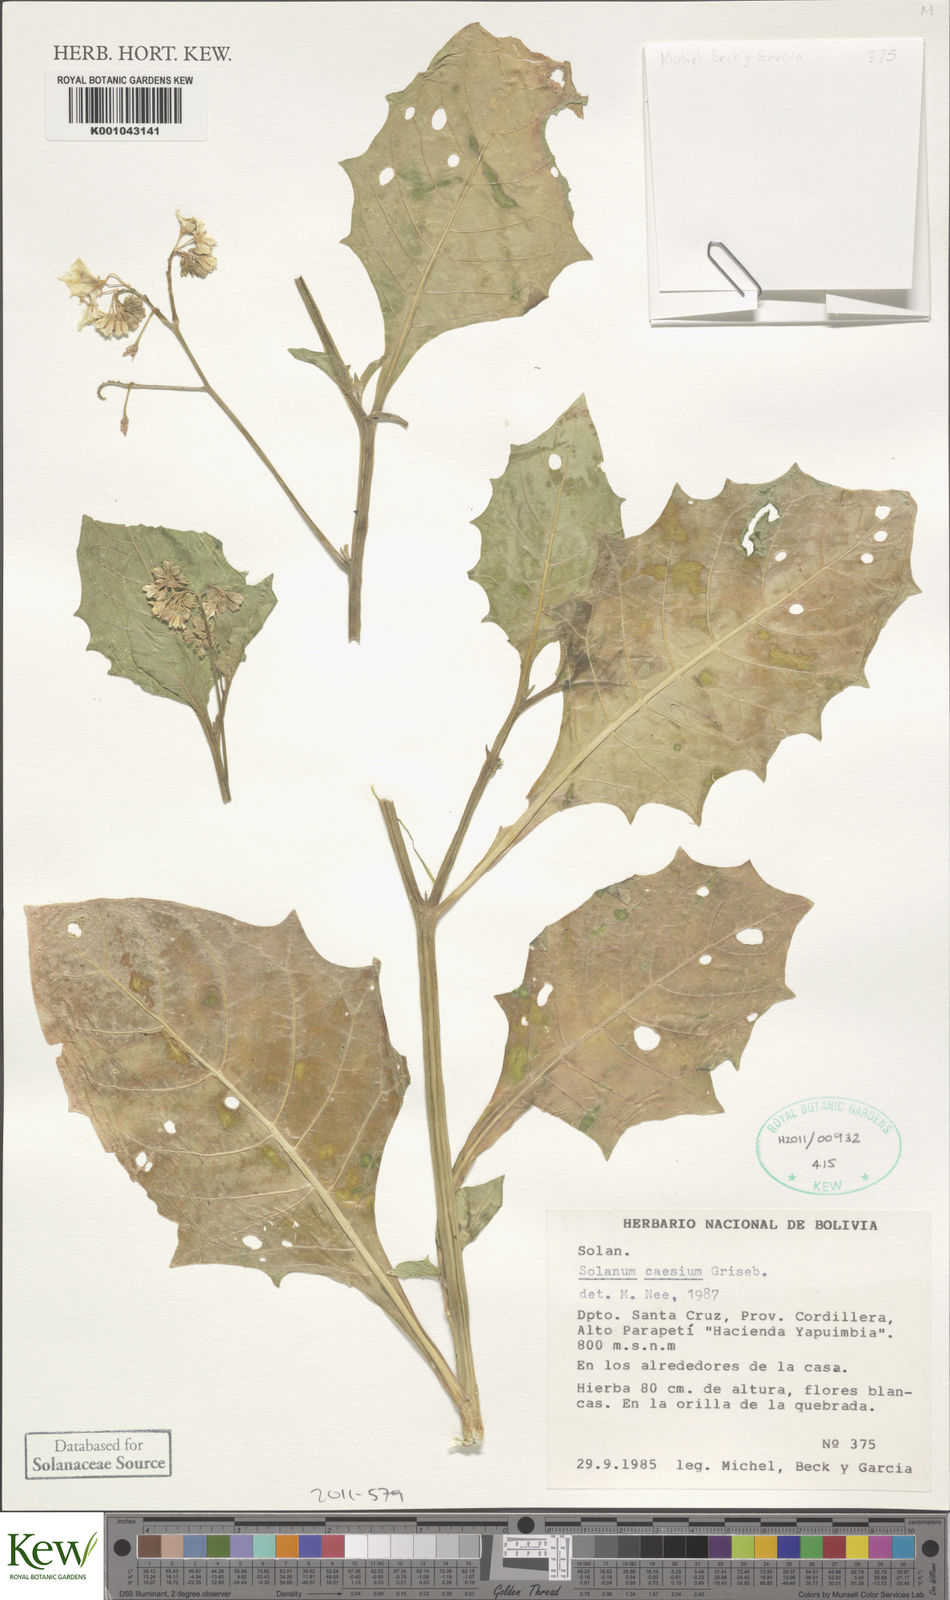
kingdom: Plantae
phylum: Tracheophyta
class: Magnoliopsida
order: Solanales
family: Solanaceae
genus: Solanum
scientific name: Solanum caesium
